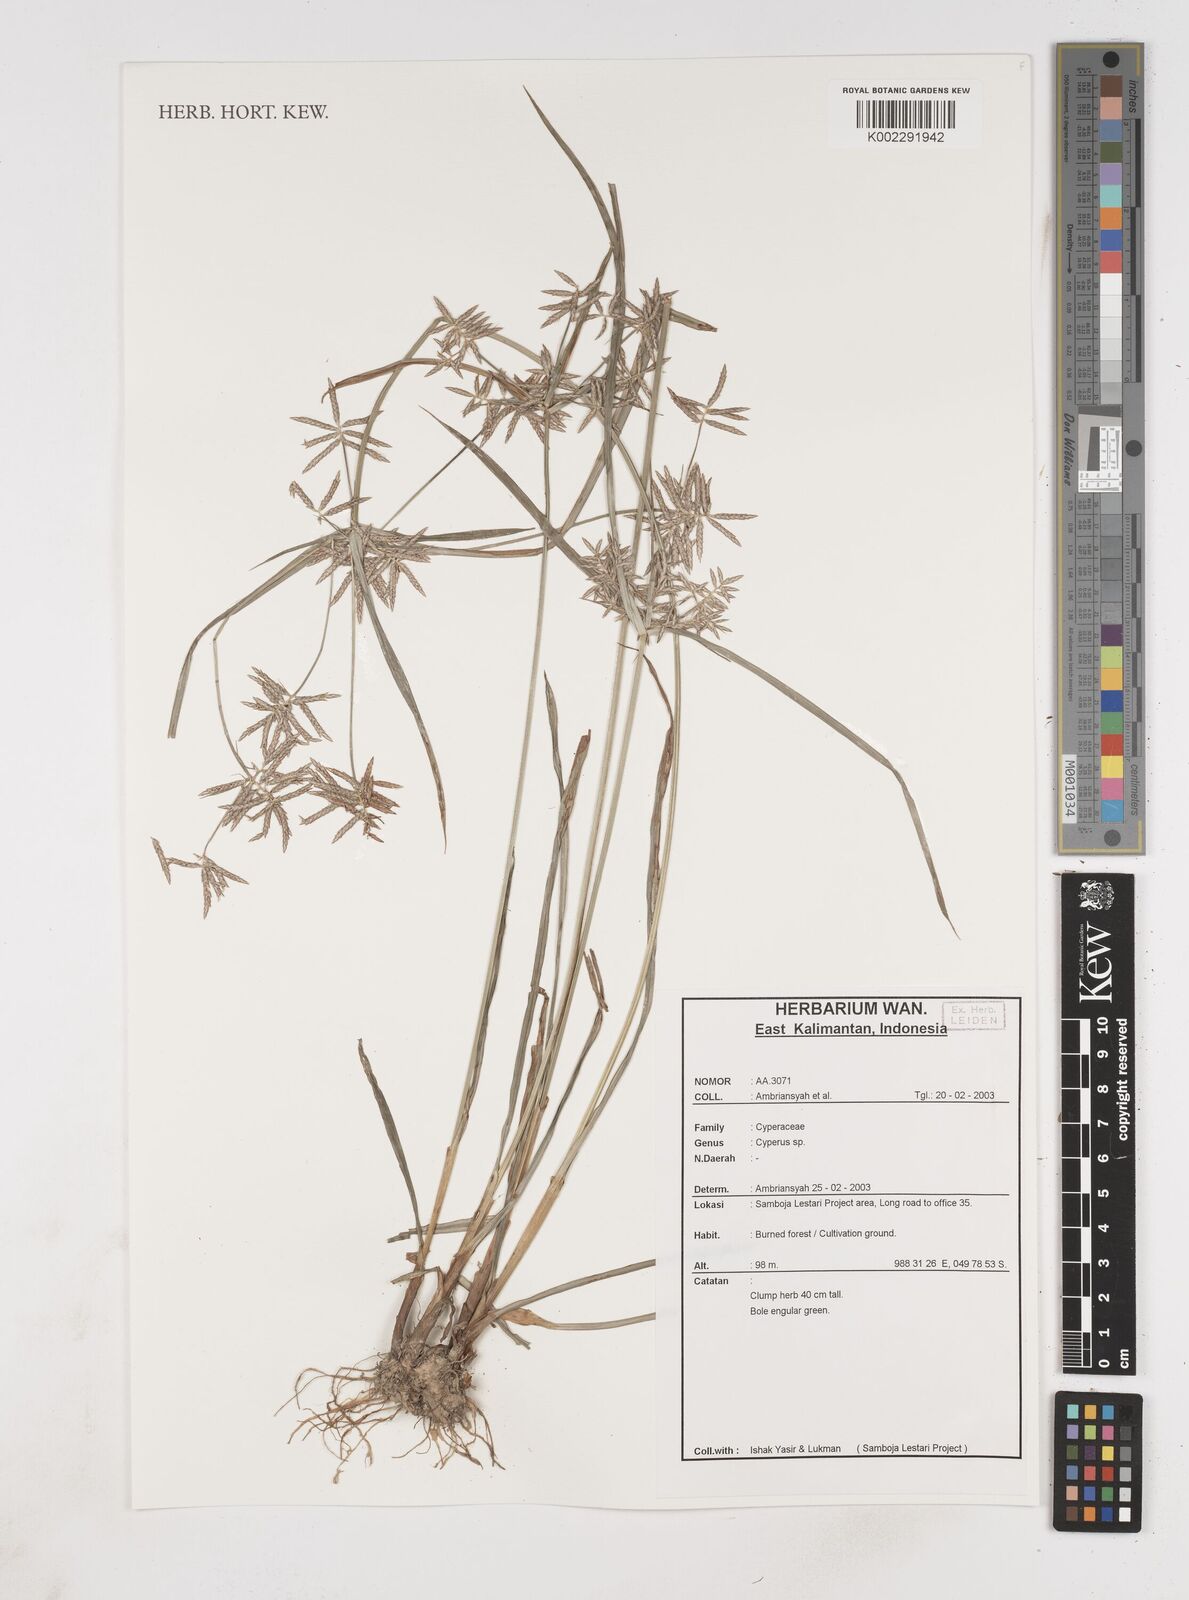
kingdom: Plantae
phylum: Tracheophyta
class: Liliopsida
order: Poales
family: Cyperaceae
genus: Cyperus
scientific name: Cyperus
